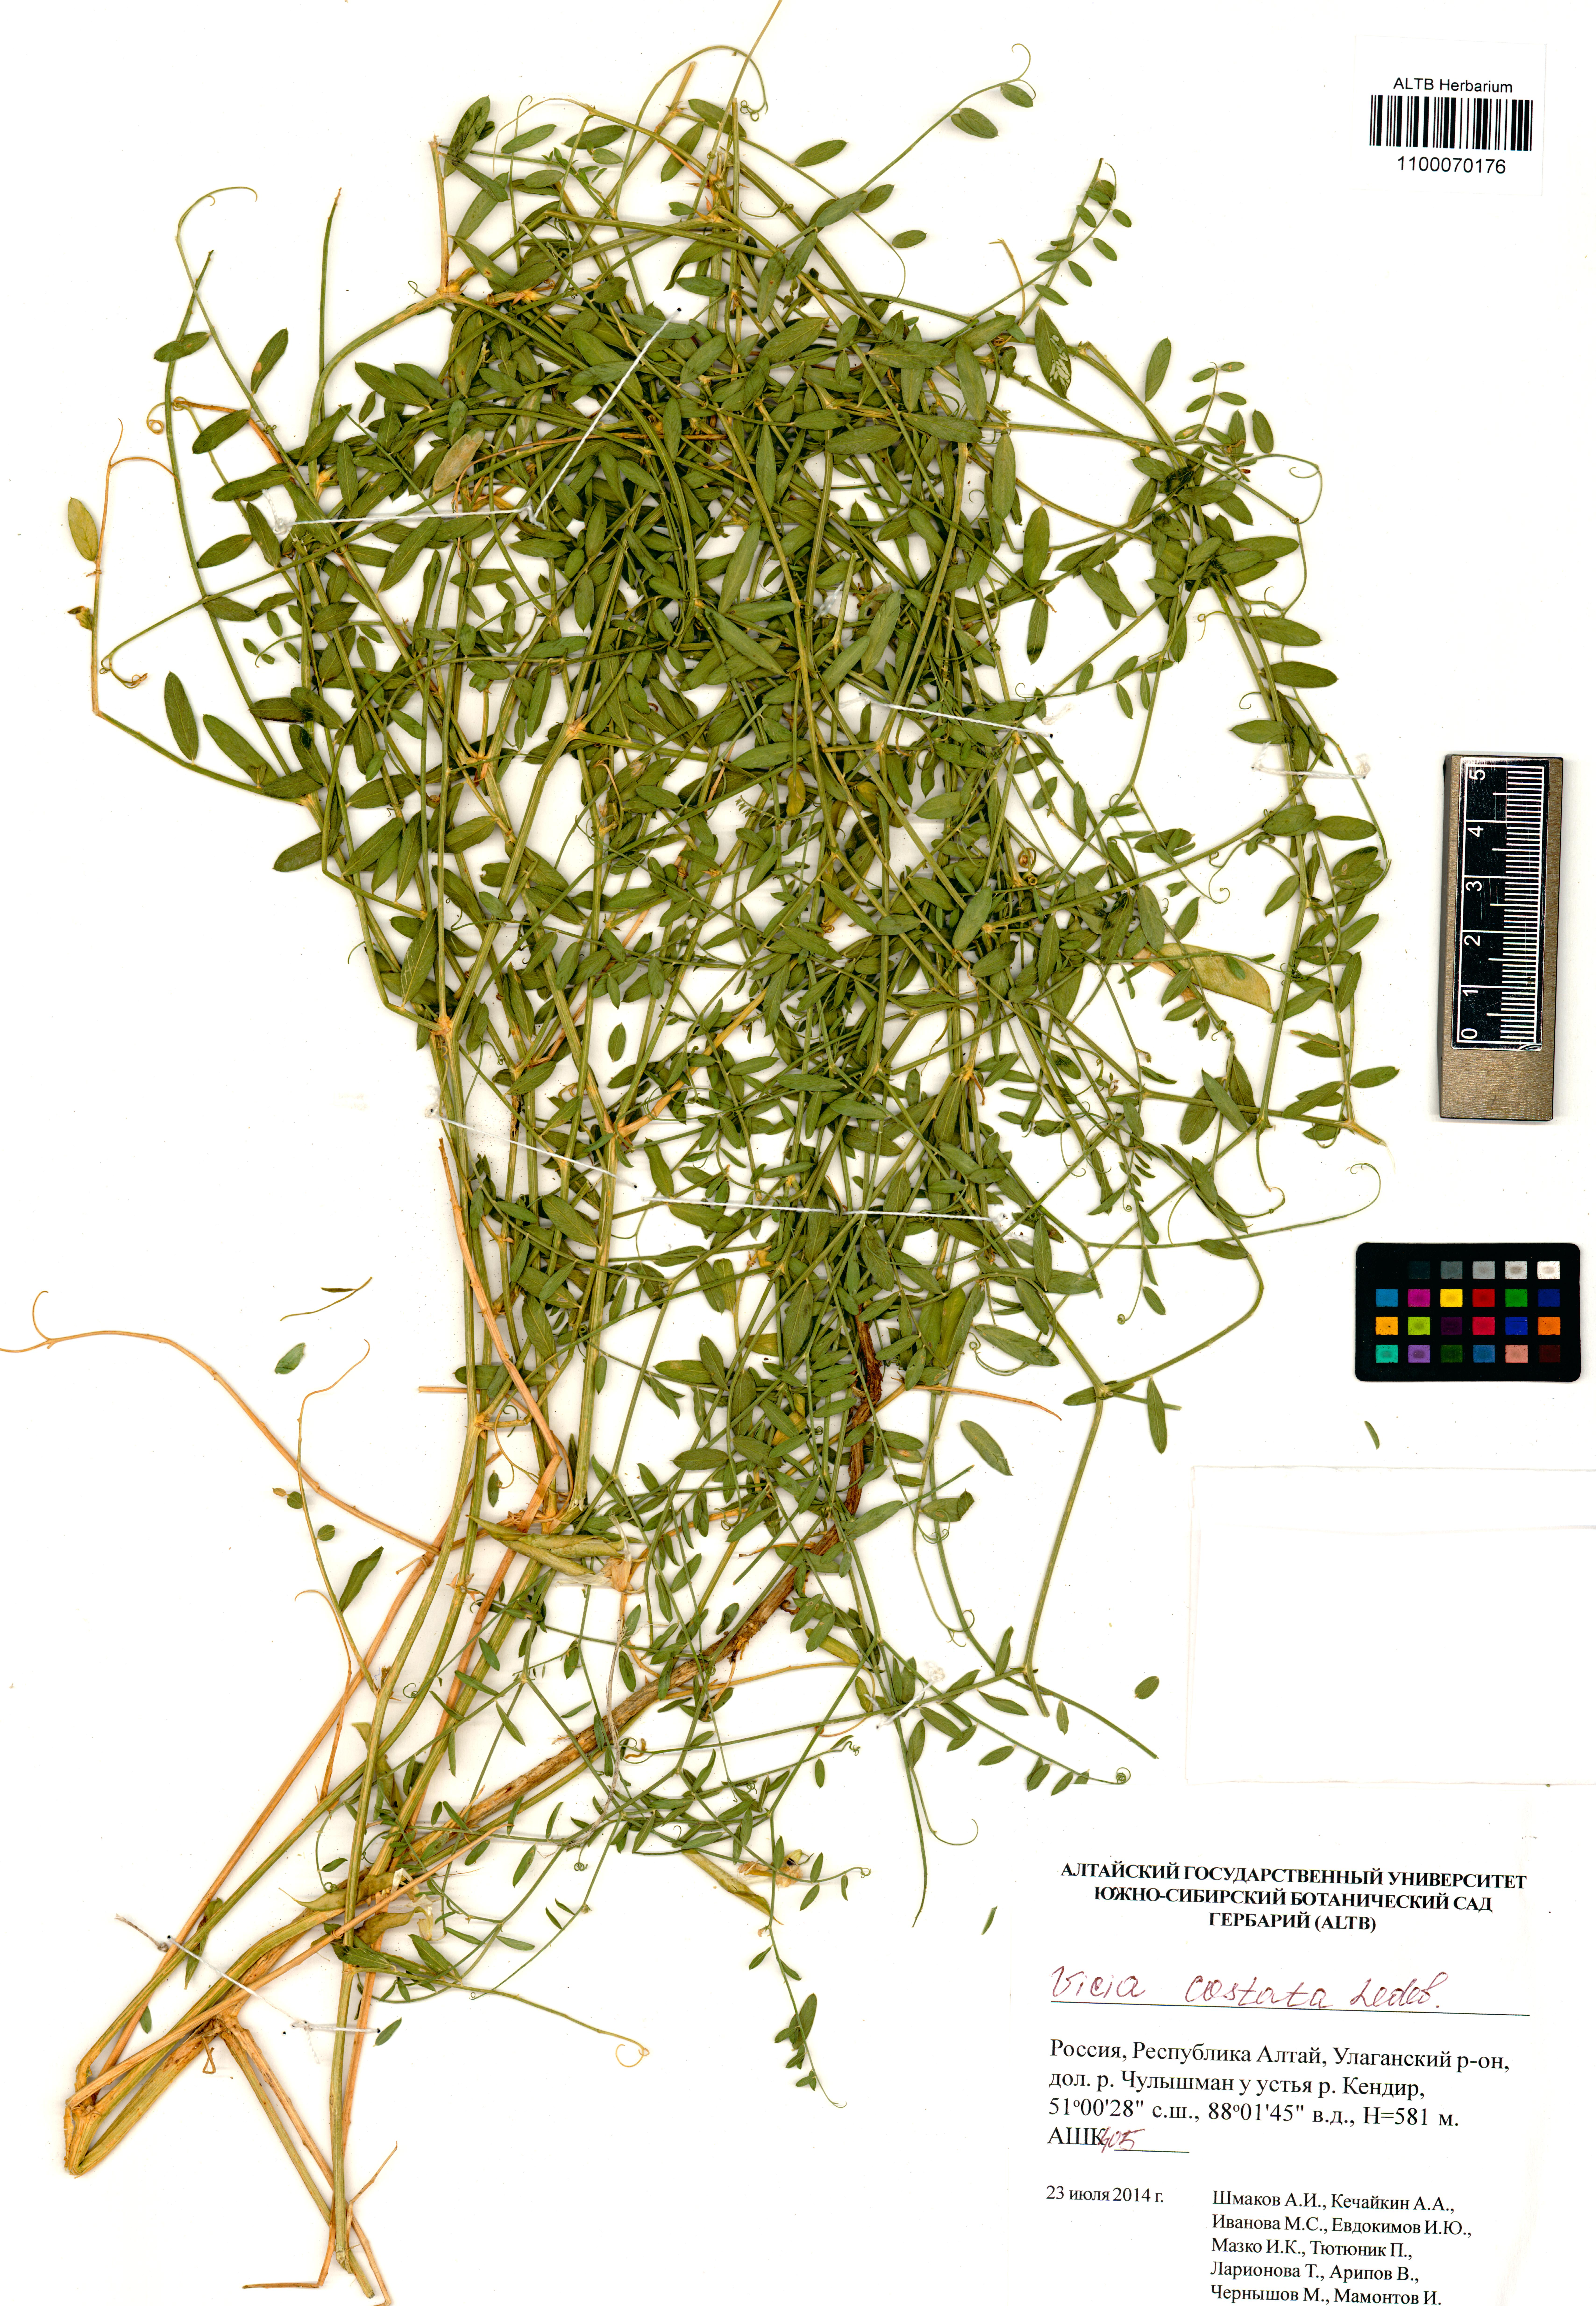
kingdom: Plantae
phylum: Tracheophyta
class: Magnoliopsida
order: Fabales
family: Fabaceae
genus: Vicia
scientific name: Vicia costata
